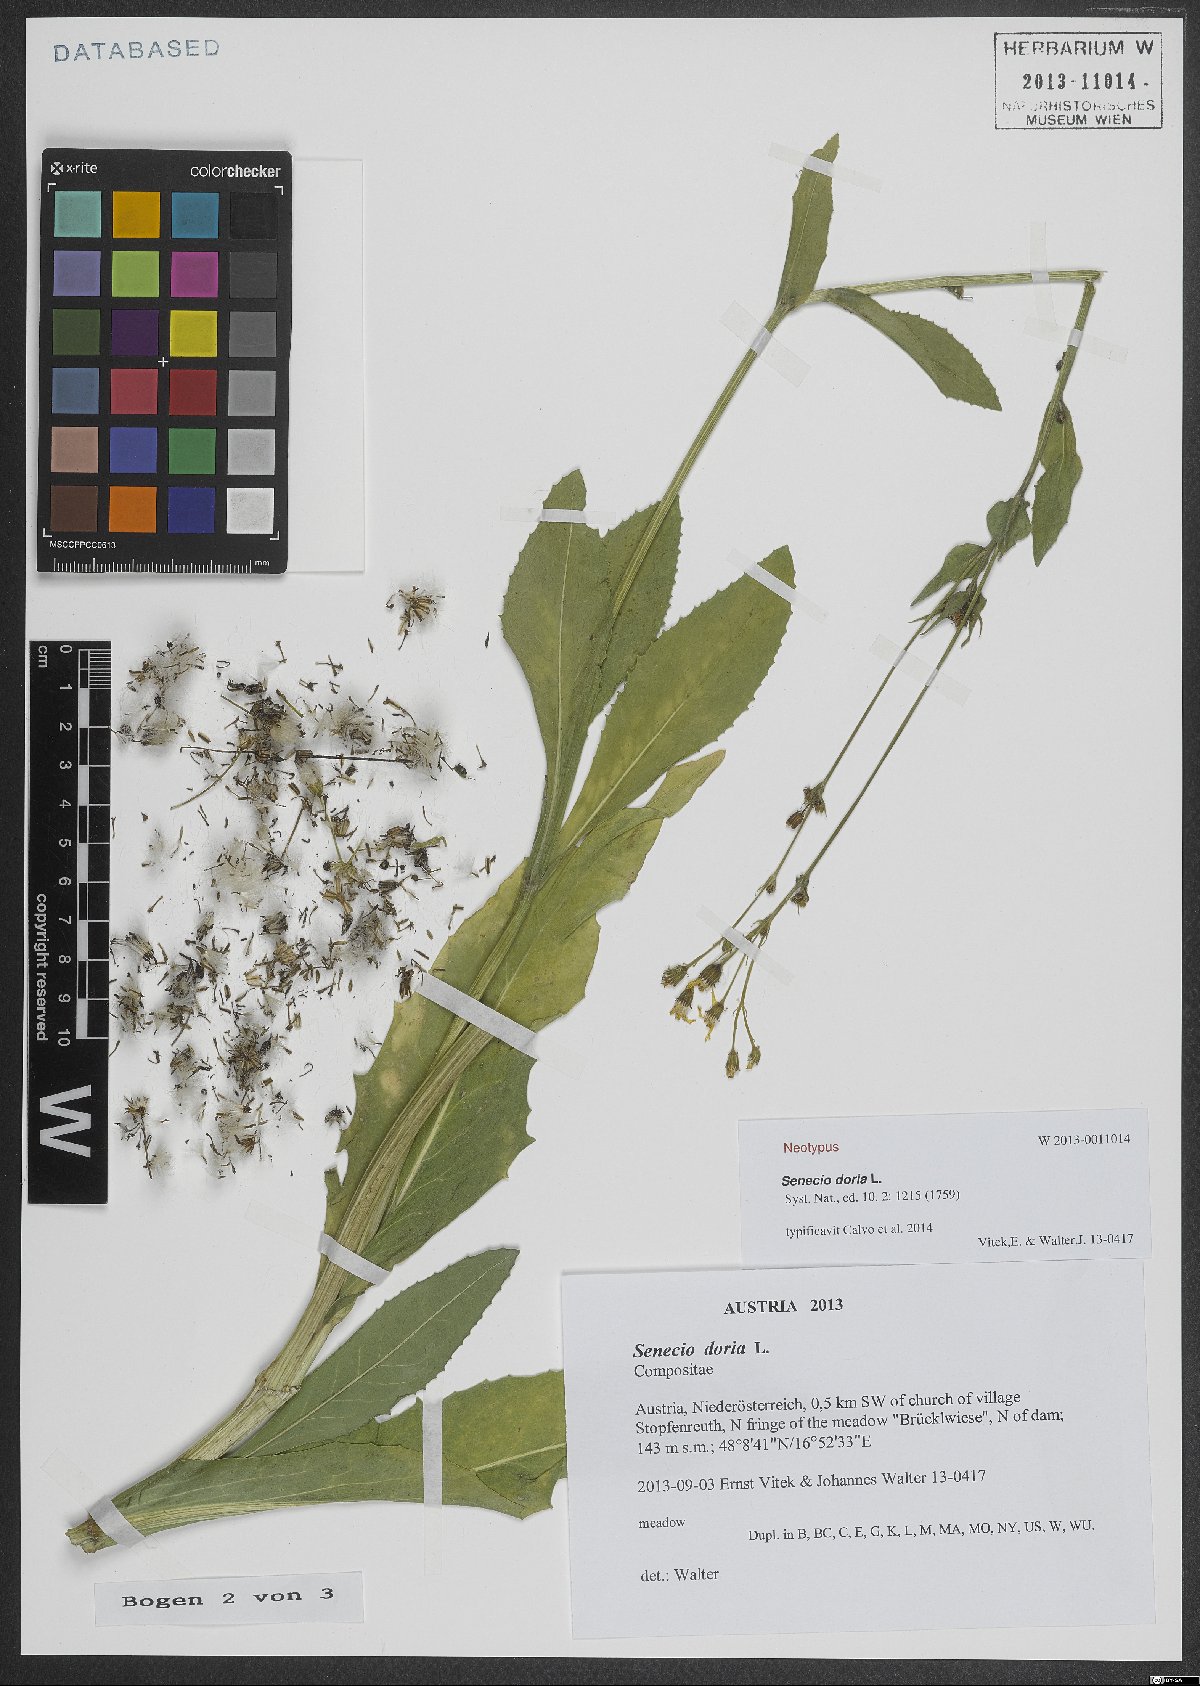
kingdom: Plantae
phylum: Tracheophyta
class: Magnoliopsida
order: Asterales
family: Asteraceae
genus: Senecio
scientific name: Senecio doria
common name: Golden ragwort
